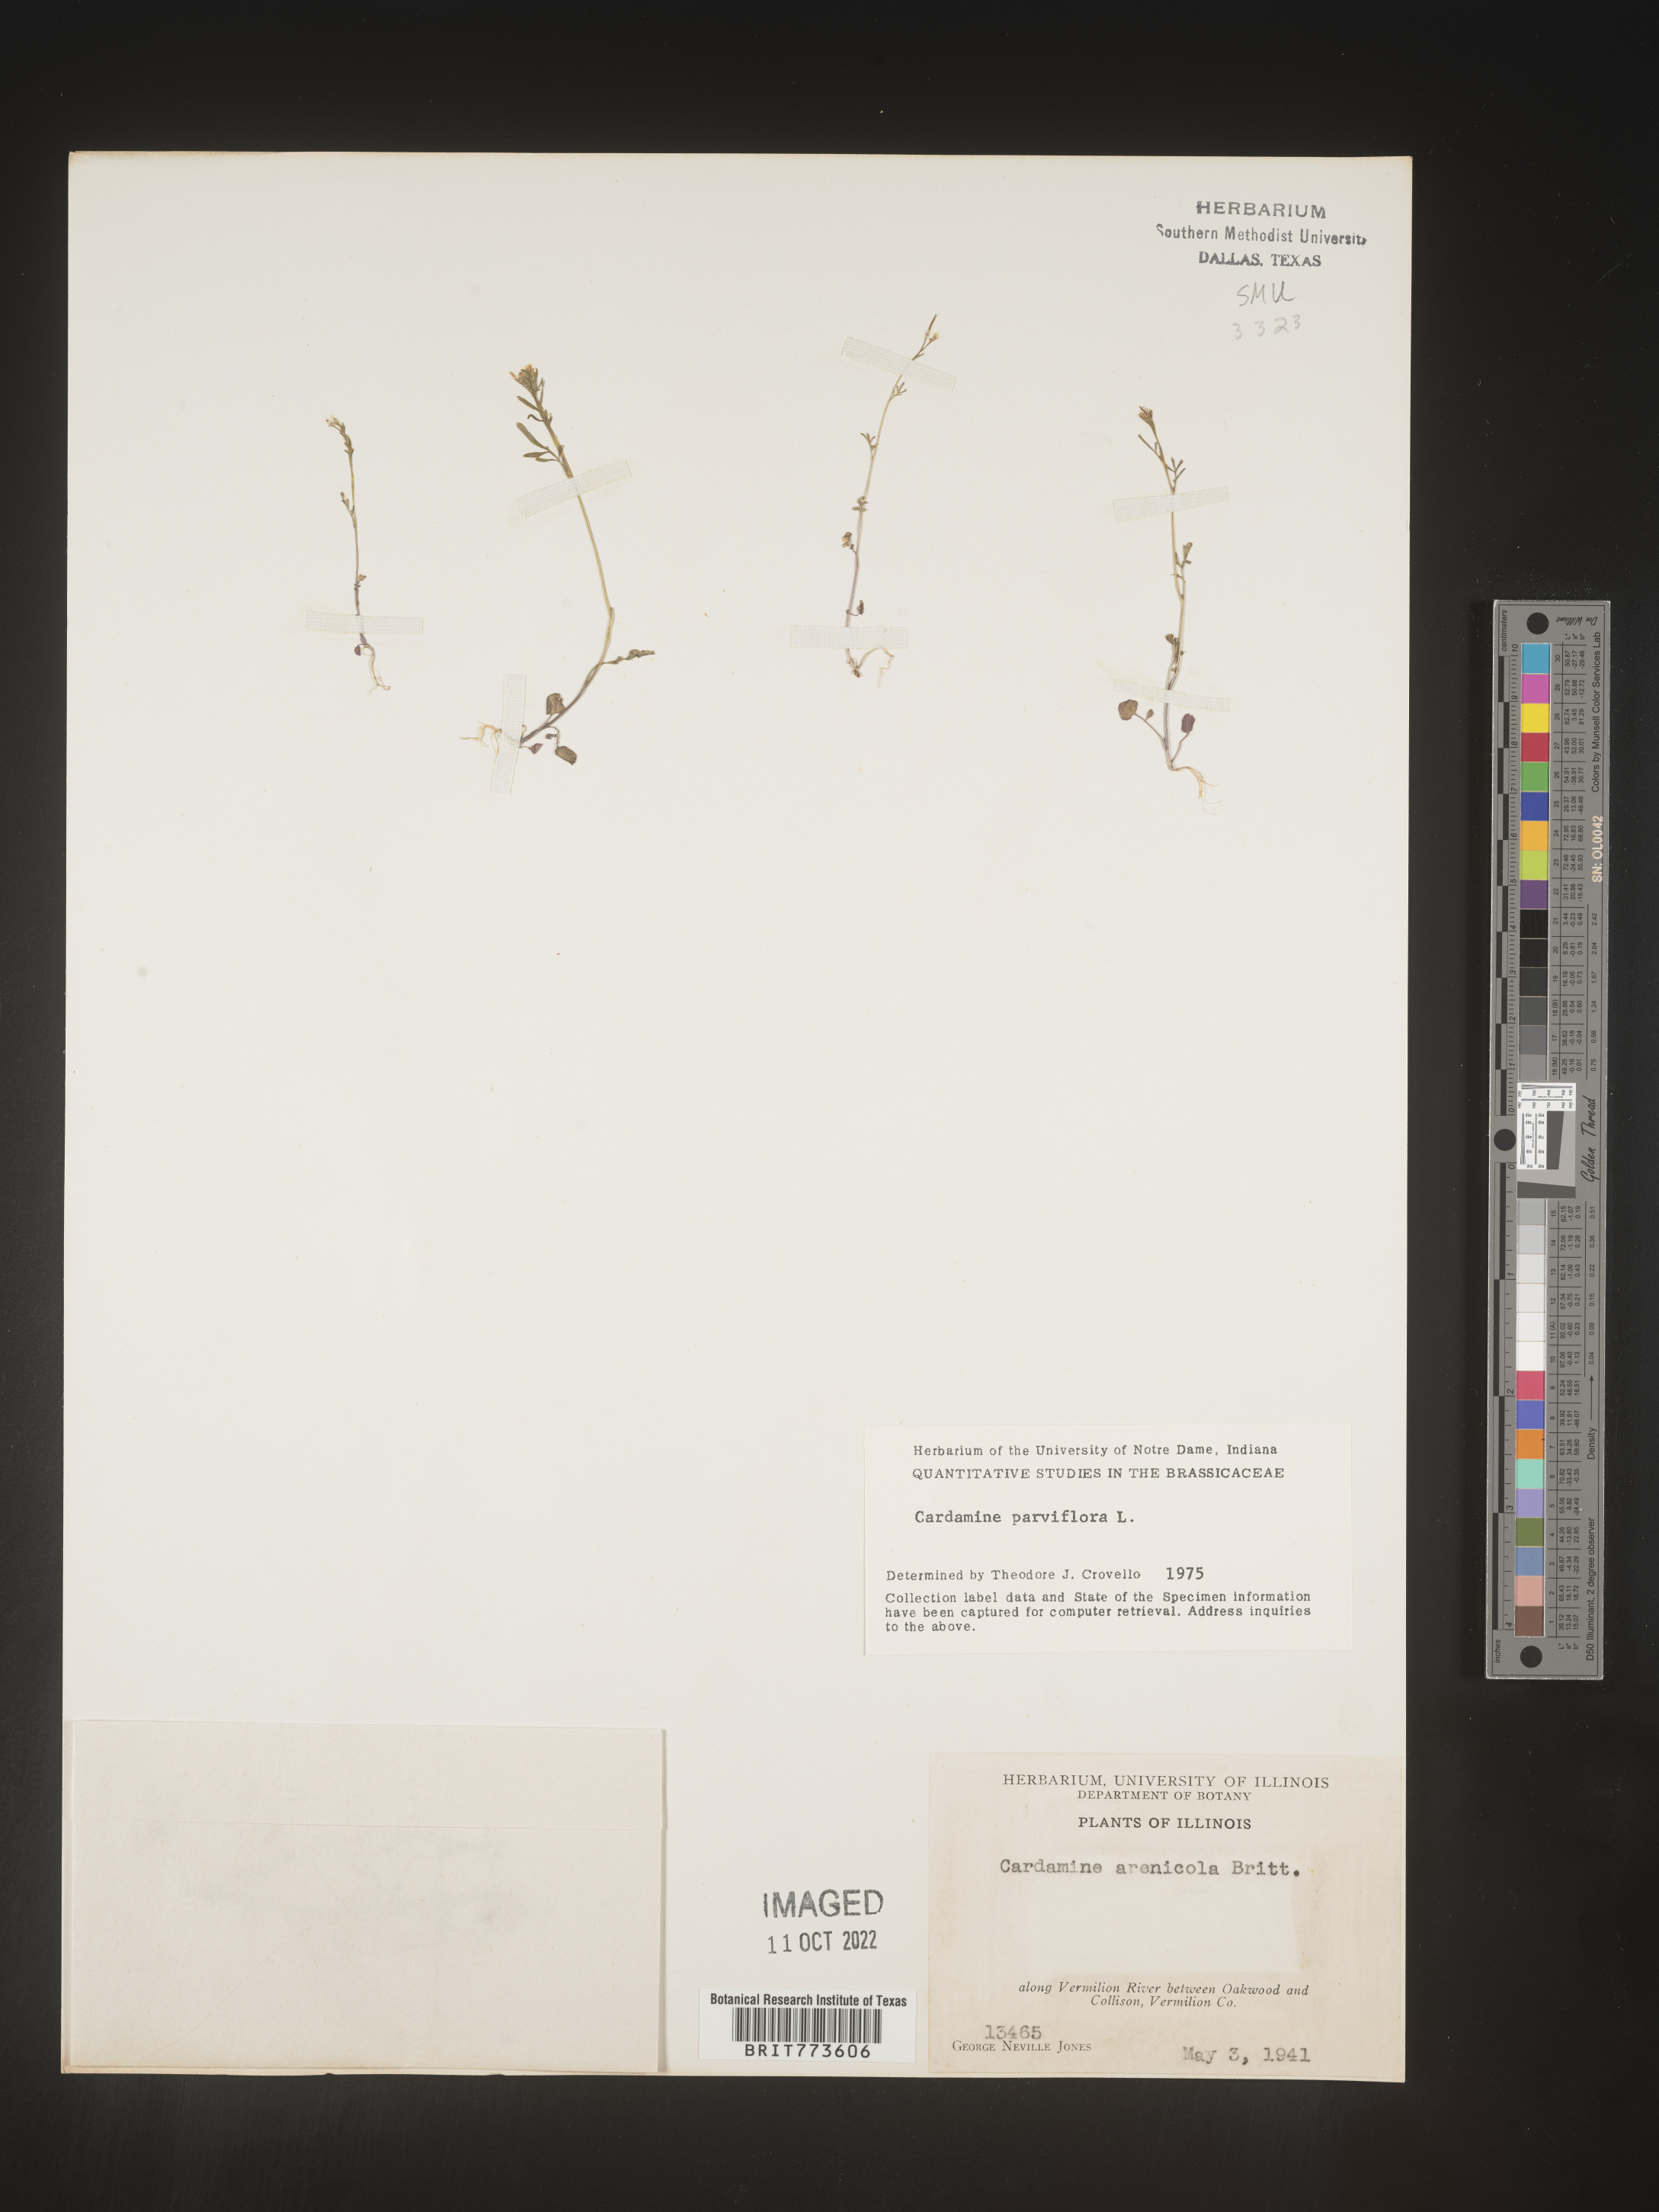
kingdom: Plantae
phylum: Tracheophyta
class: Magnoliopsida
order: Brassicales
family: Brassicaceae
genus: Cardamine
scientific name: Cardamine parviflora
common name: Sand bittercress
